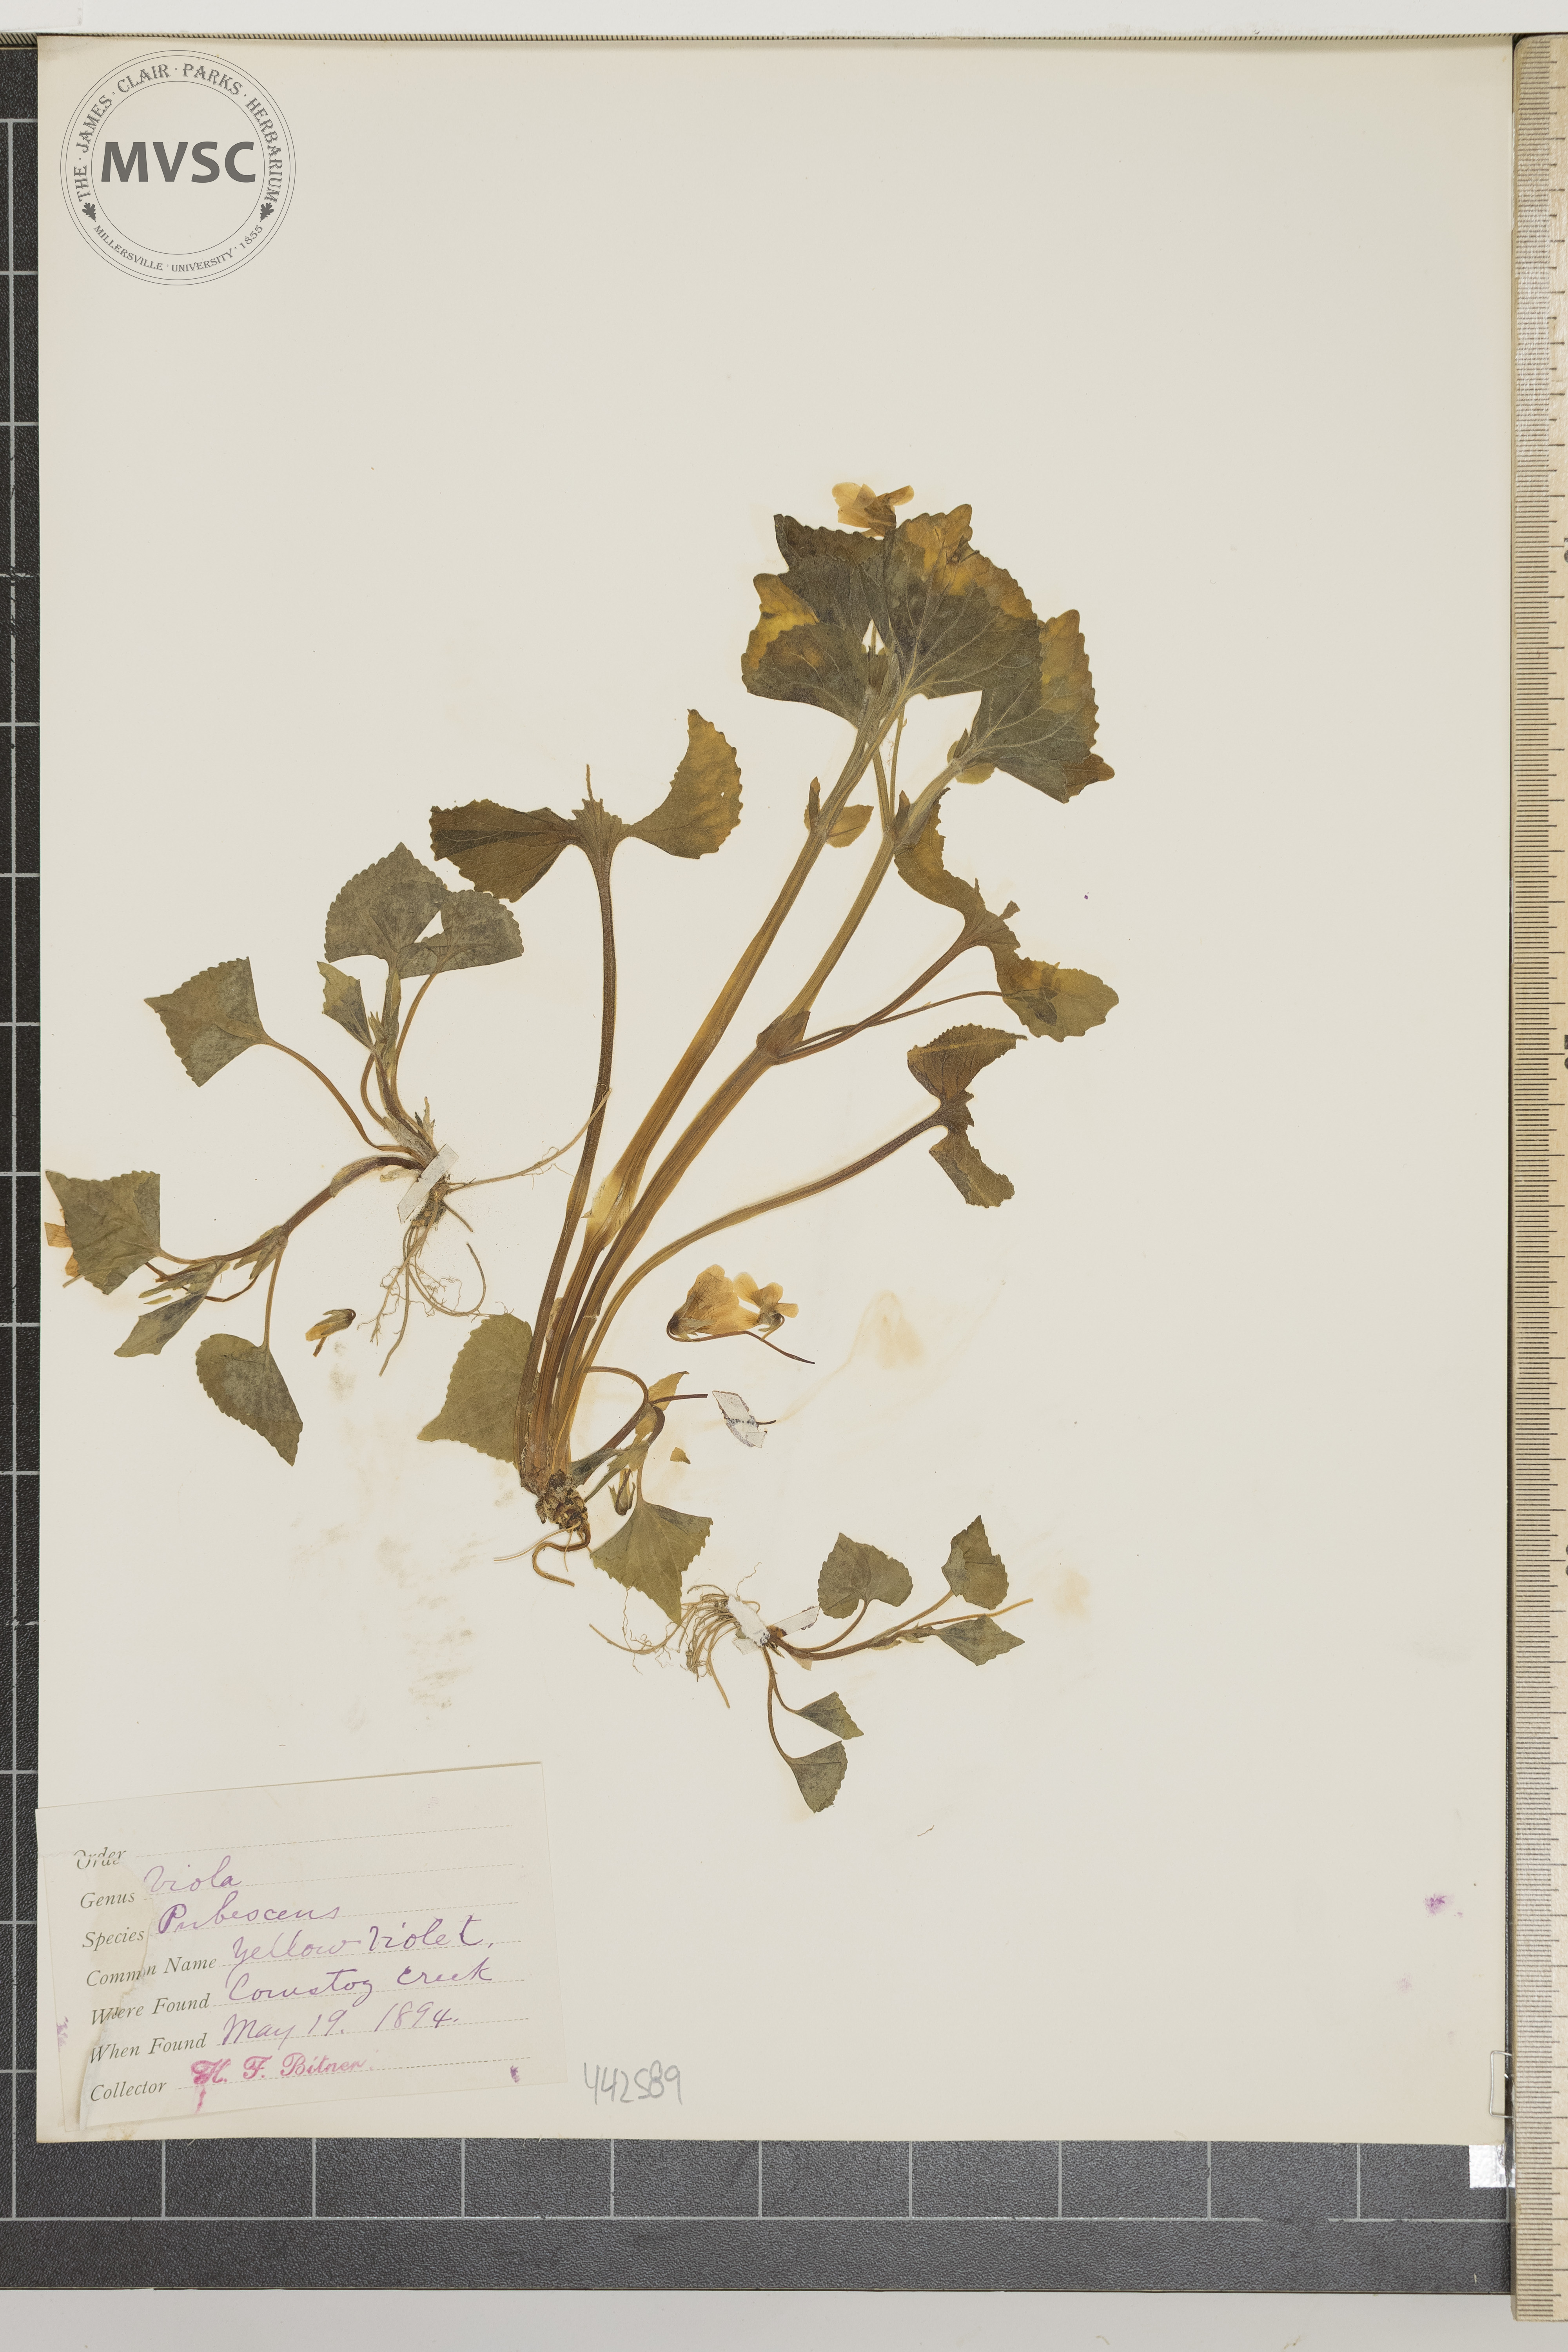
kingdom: Plantae
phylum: Tracheophyta
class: Magnoliopsida
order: Malpighiales
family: Violaceae
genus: Viola
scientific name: Viola pubescens
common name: Yellow violet
